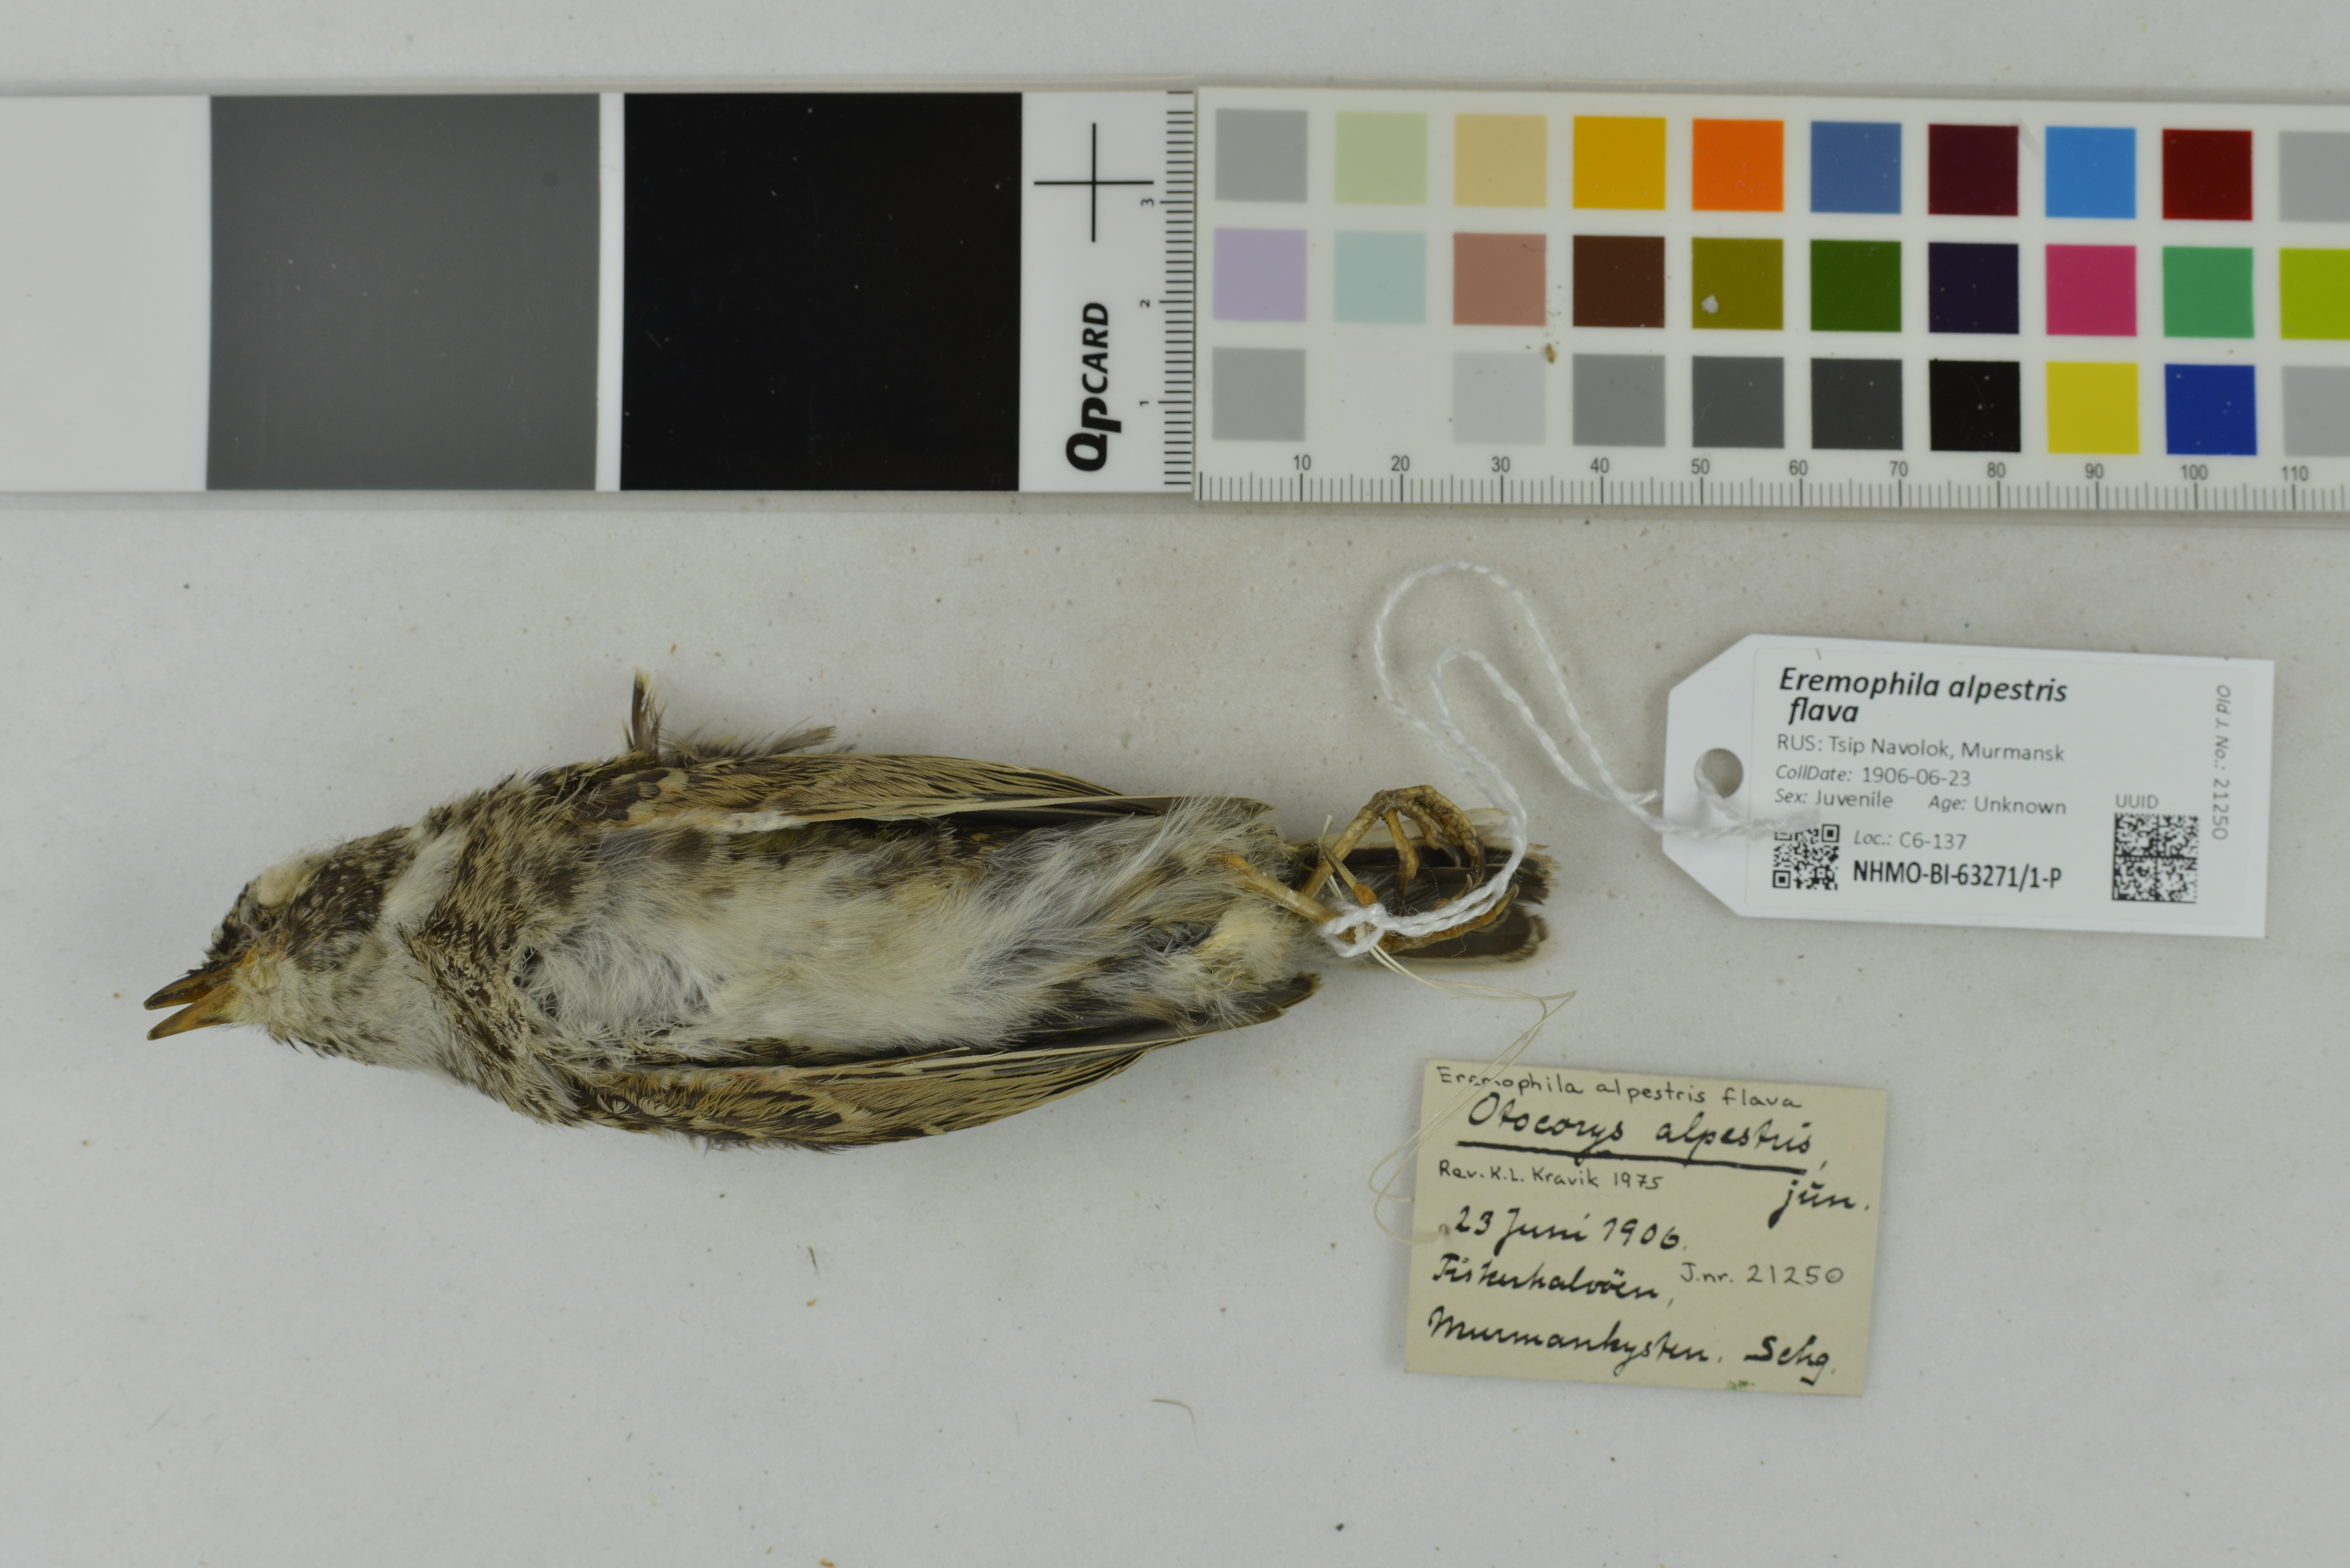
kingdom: Animalia
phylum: Chordata
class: Aves
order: Passeriformes
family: Alaudidae
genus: Eremophila
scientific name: Eremophila alpestris
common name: Horned lark
